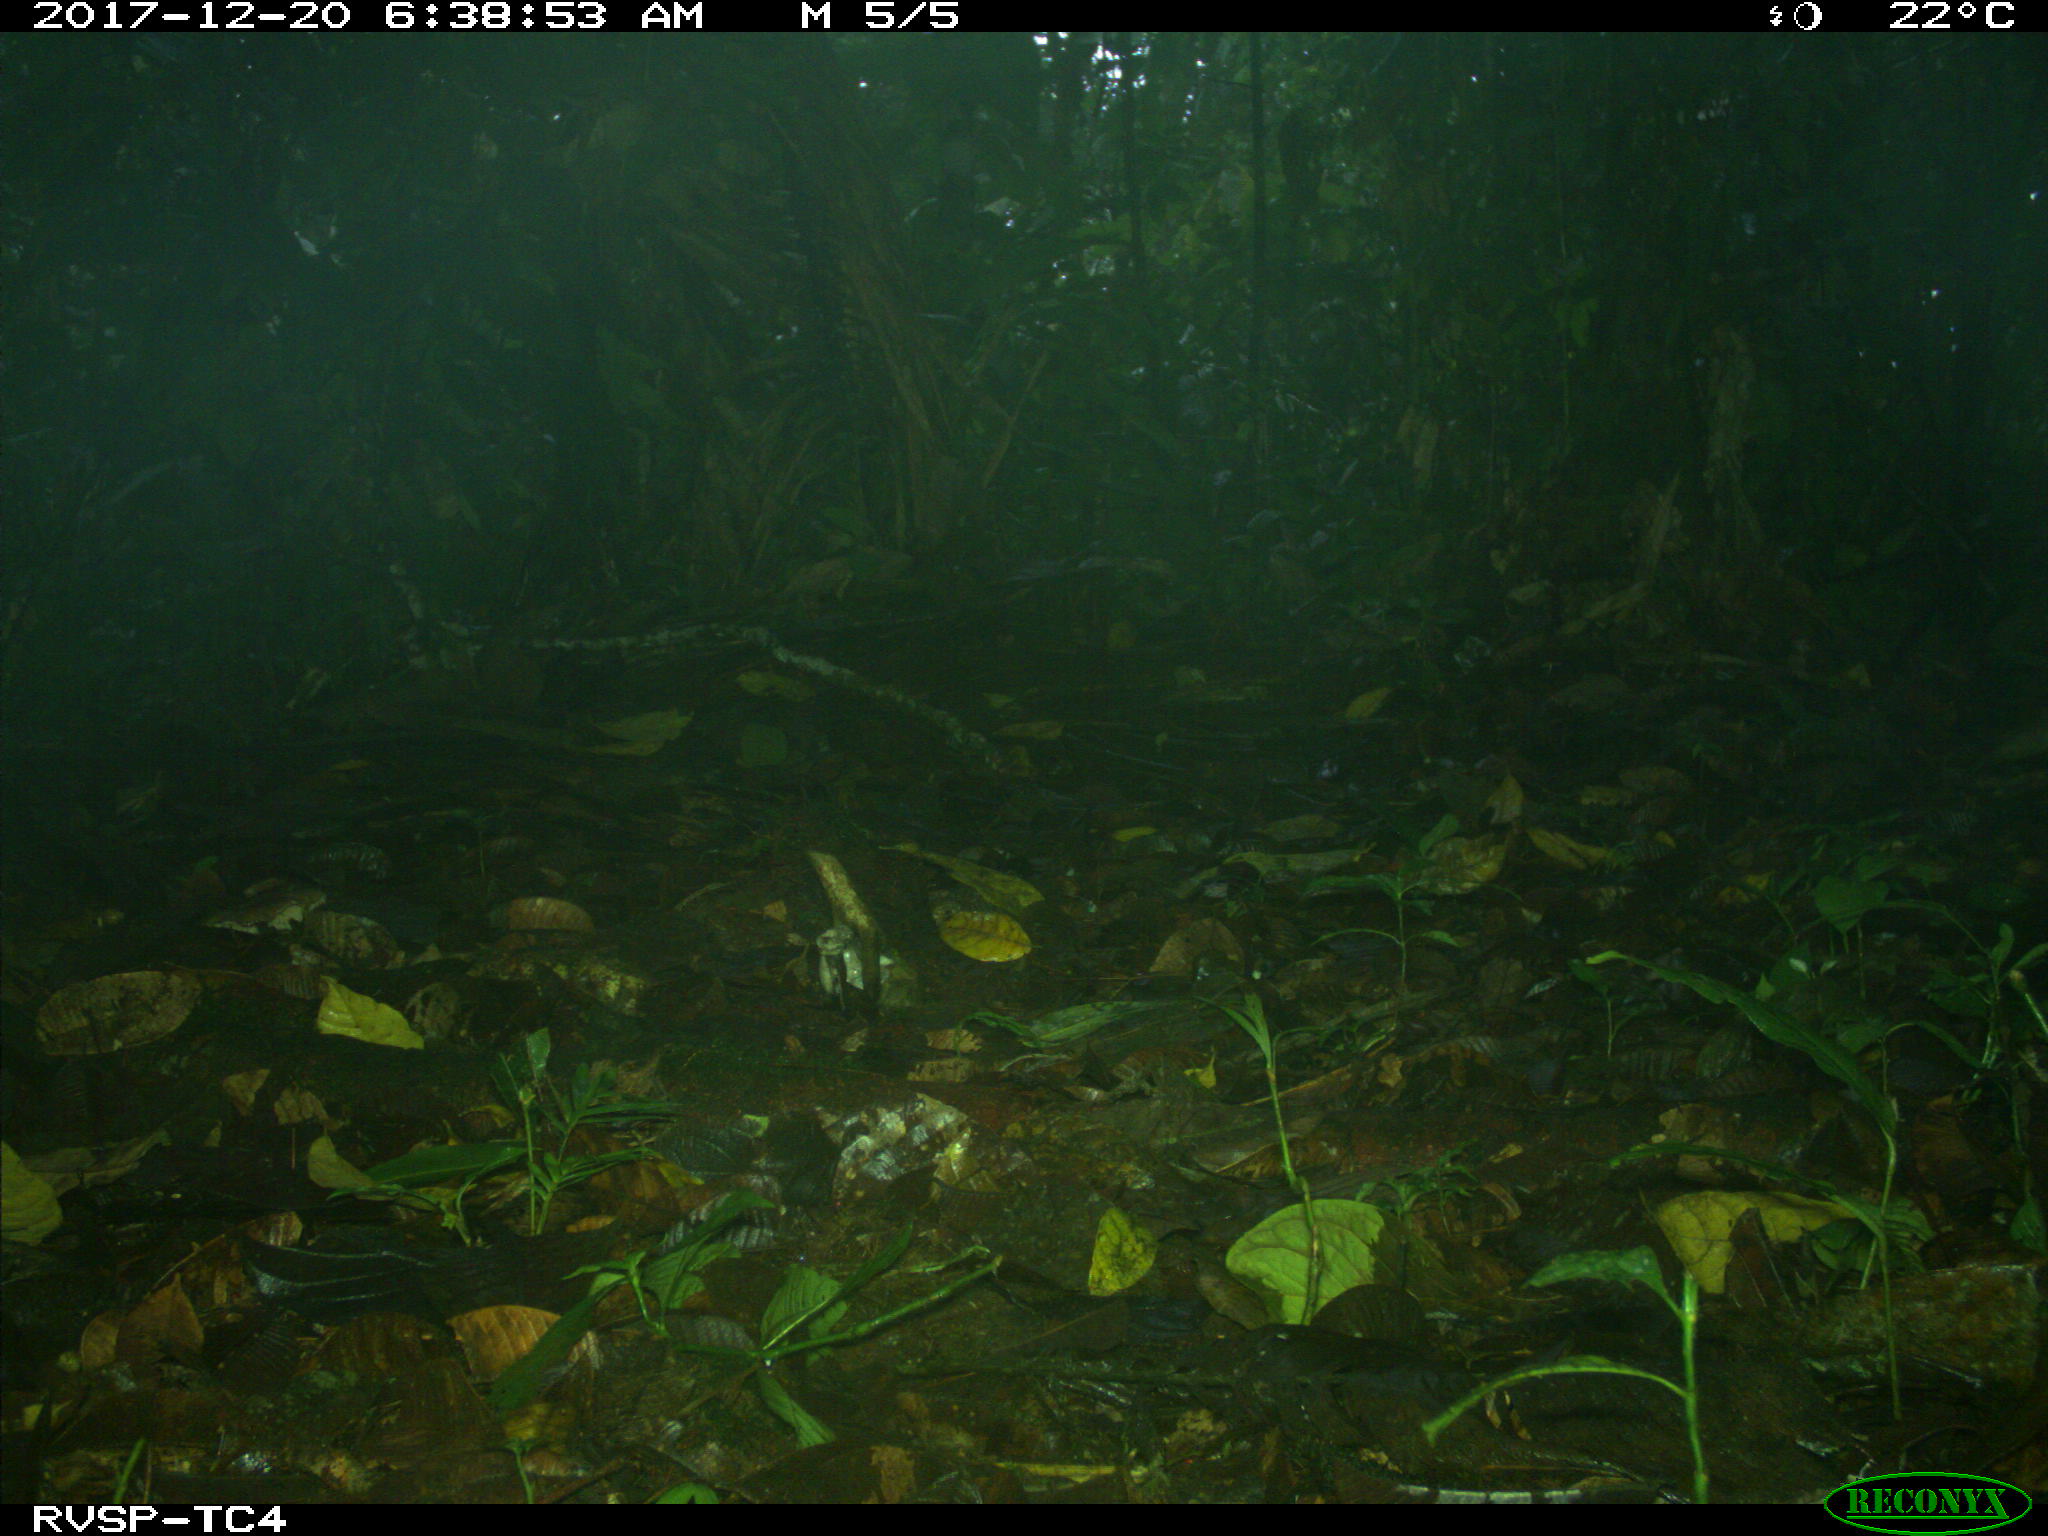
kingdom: Animalia
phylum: Chordata
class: Mammalia
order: Rodentia
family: Dasyproctidae
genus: Dasyprocta
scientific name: Dasyprocta punctata
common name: Central american agouti
